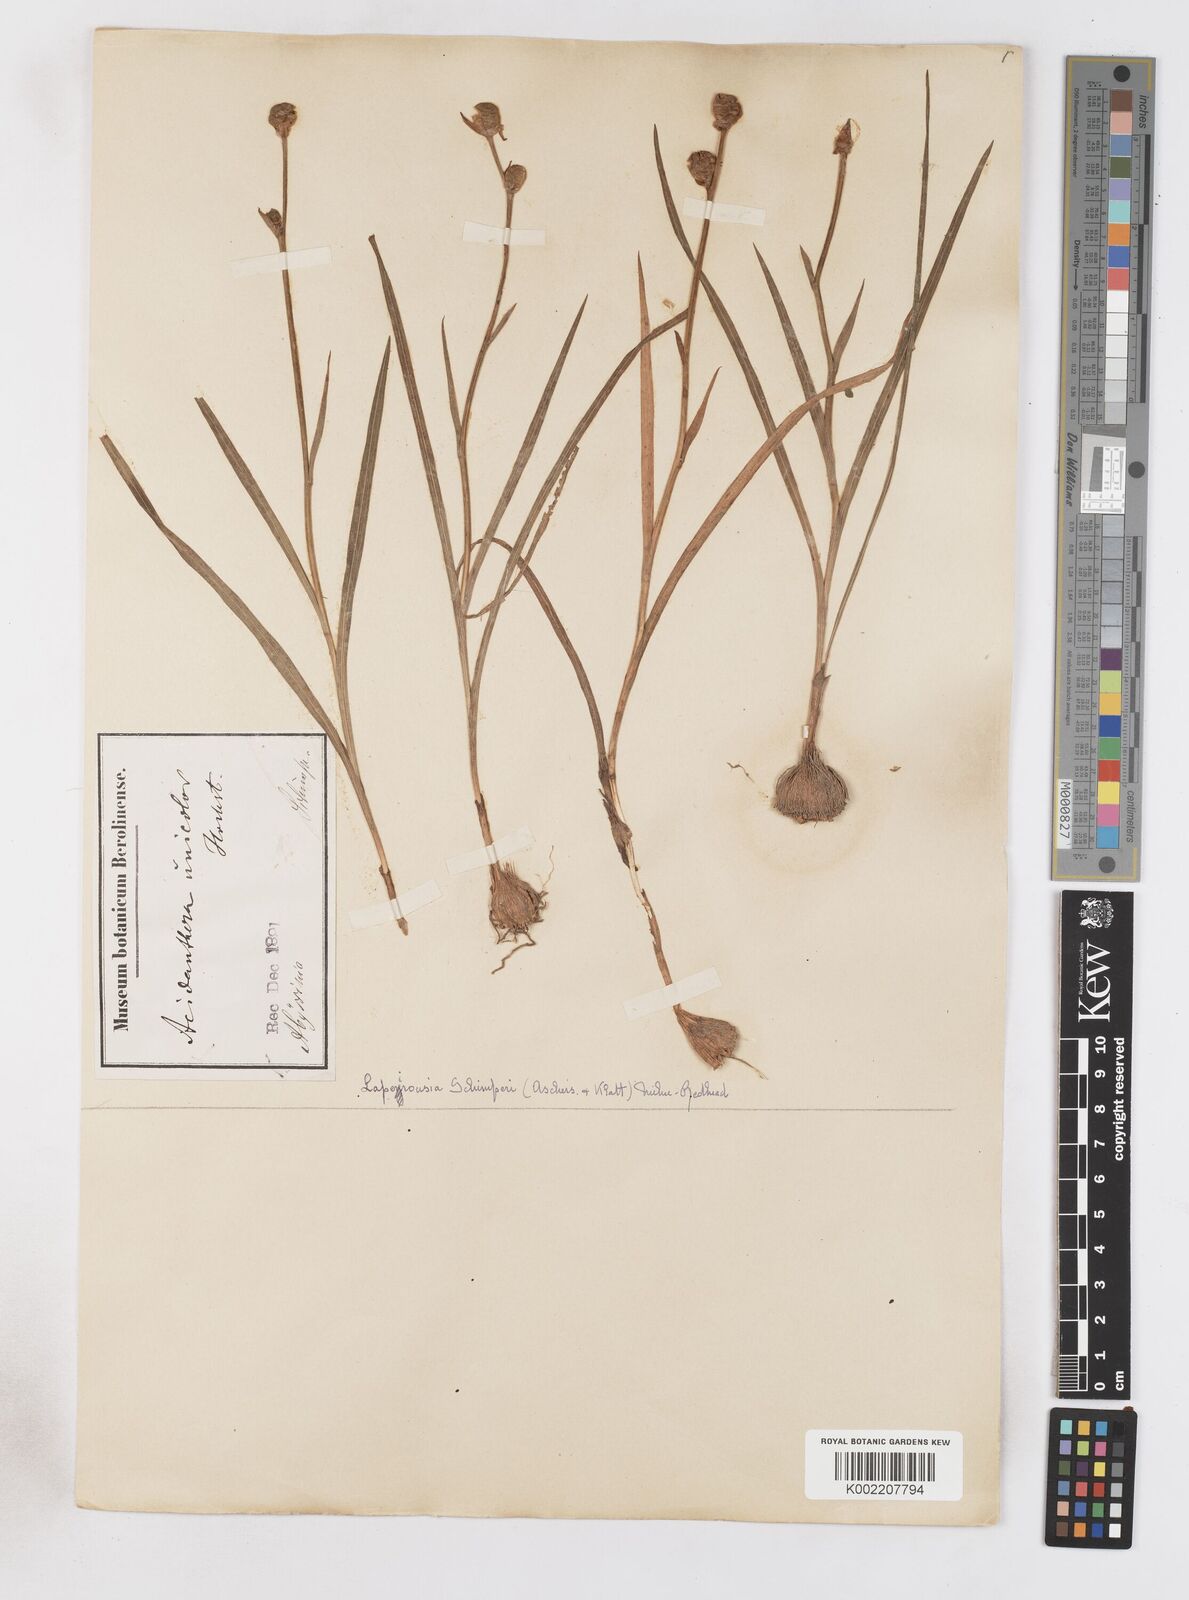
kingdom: Plantae
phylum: Tracheophyta
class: Liliopsida
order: Asparagales
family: Iridaceae
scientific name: Iridaceae
